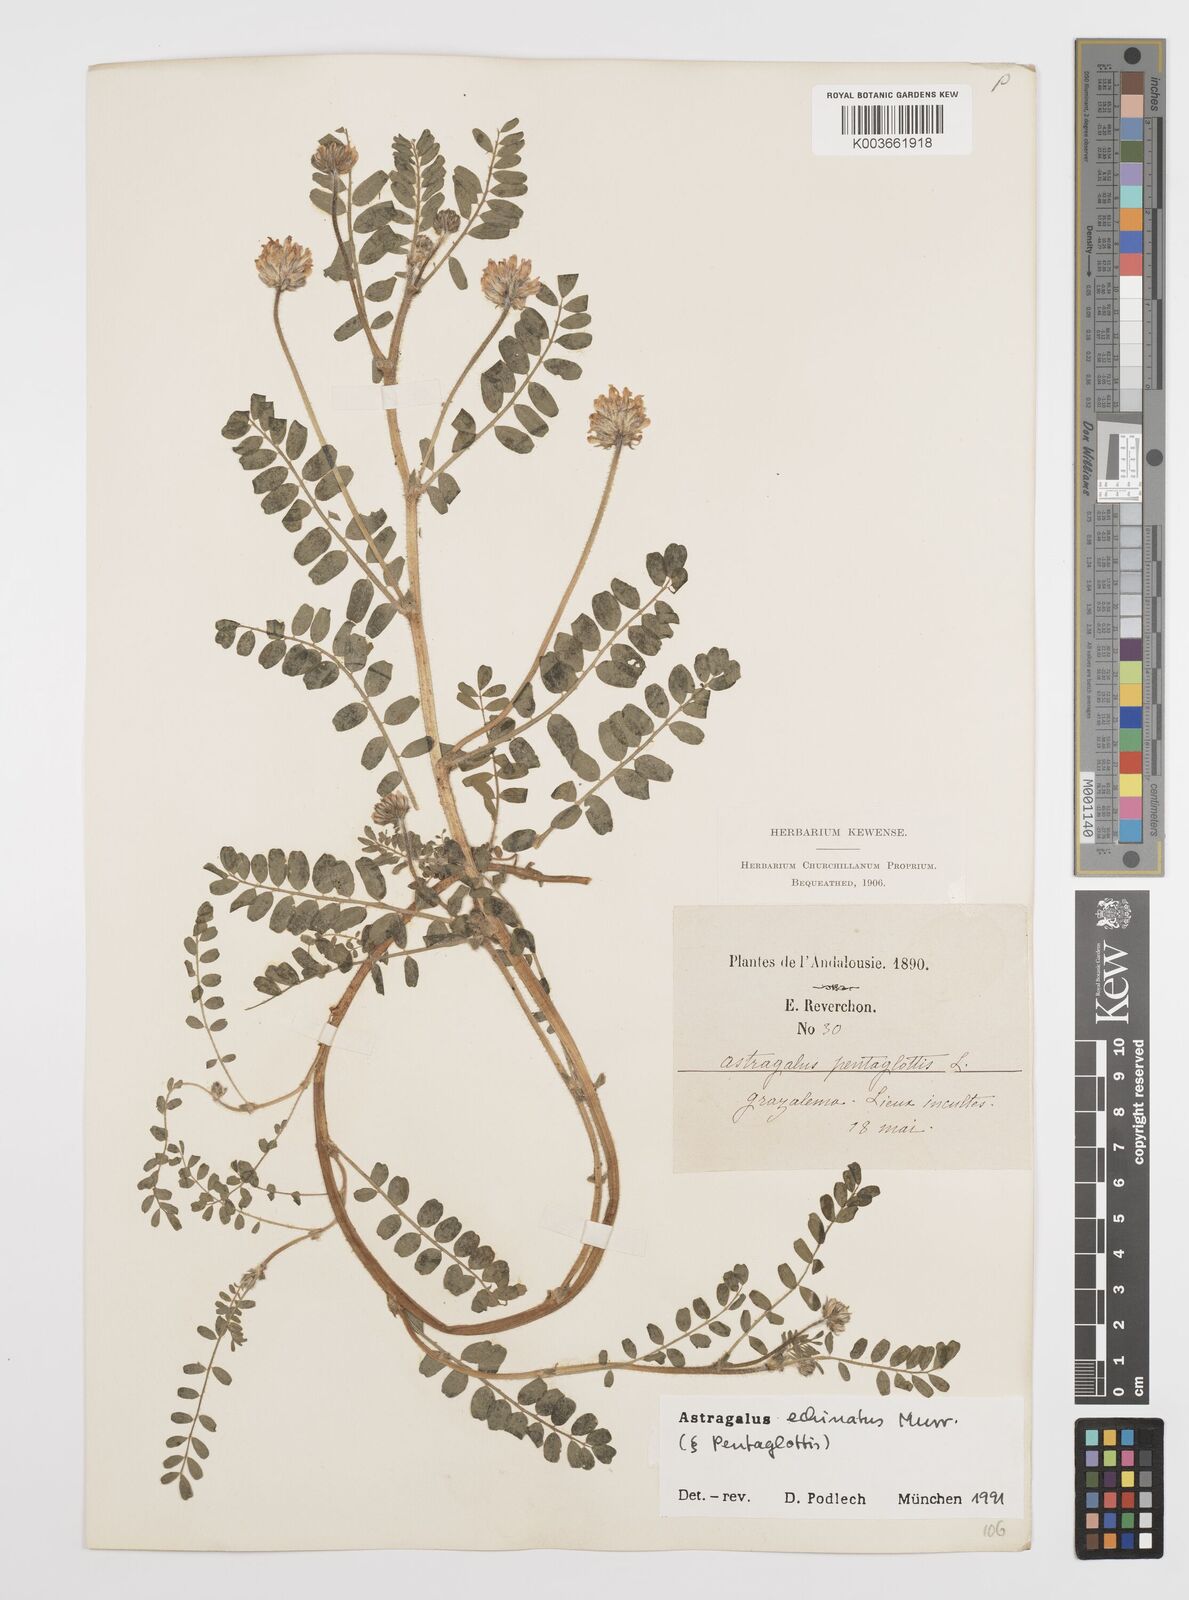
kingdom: Plantae
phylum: Tracheophyta
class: Magnoliopsida
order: Fabales
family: Fabaceae
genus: Astragalus
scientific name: Astragalus echinatus
